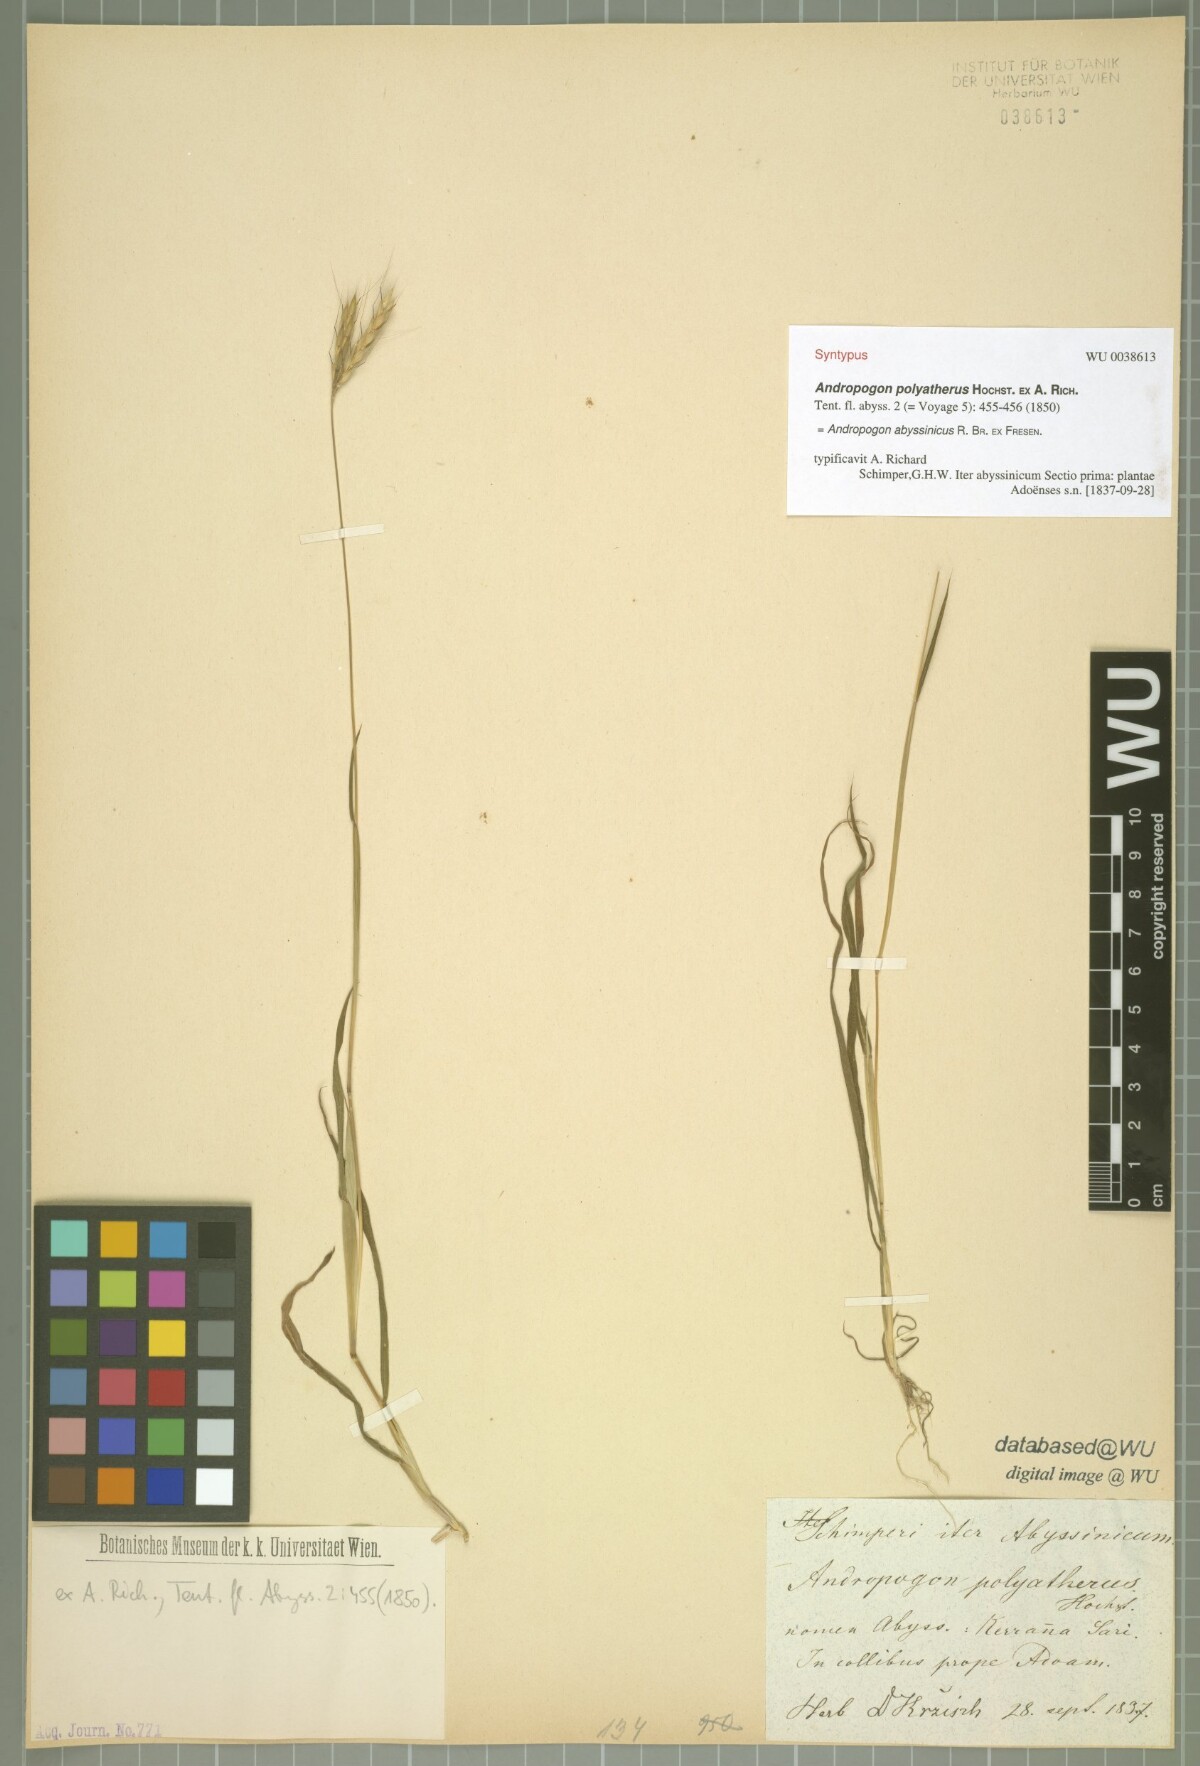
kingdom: Plantae
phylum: Tracheophyta
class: Liliopsida
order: Poales
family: Poaceae
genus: Andropogon
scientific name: Andropogon abyssinicus
